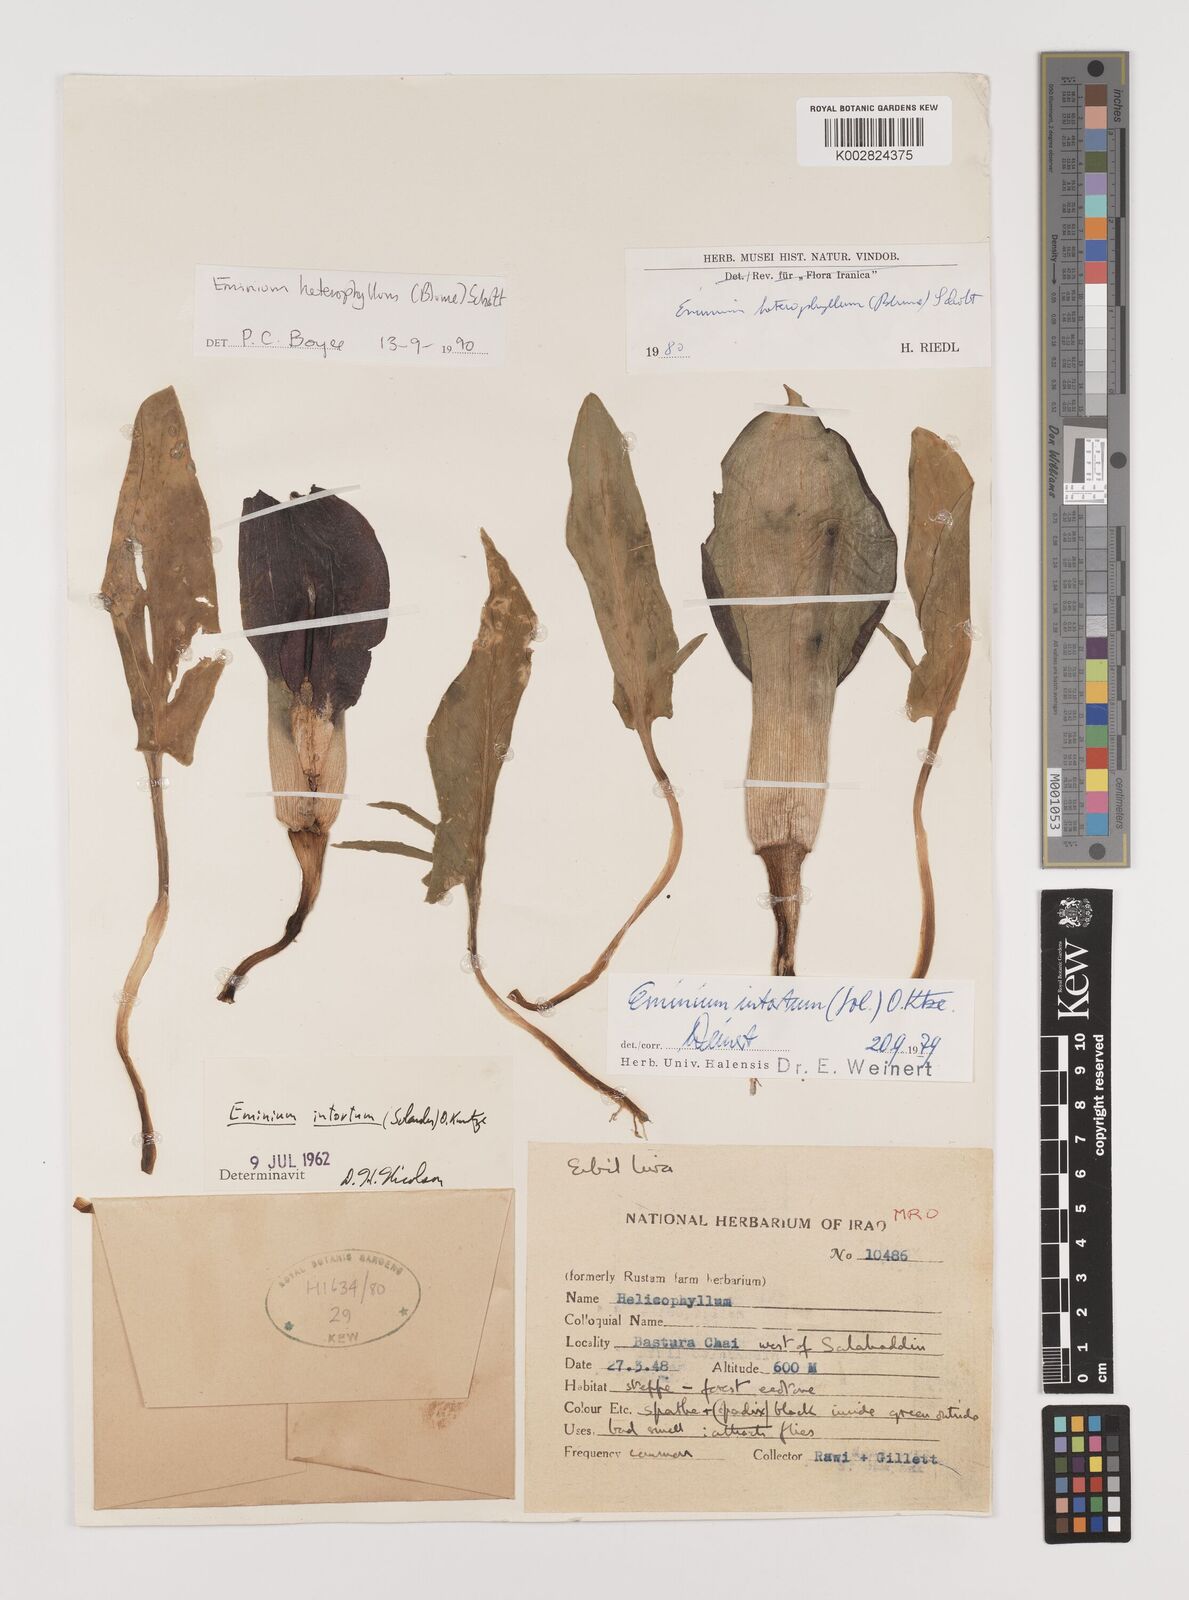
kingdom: Plantae
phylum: Tracheophyta
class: Liliopsida
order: Alismatales
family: Araceae
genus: Eminium
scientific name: Eminium rauwolffii
